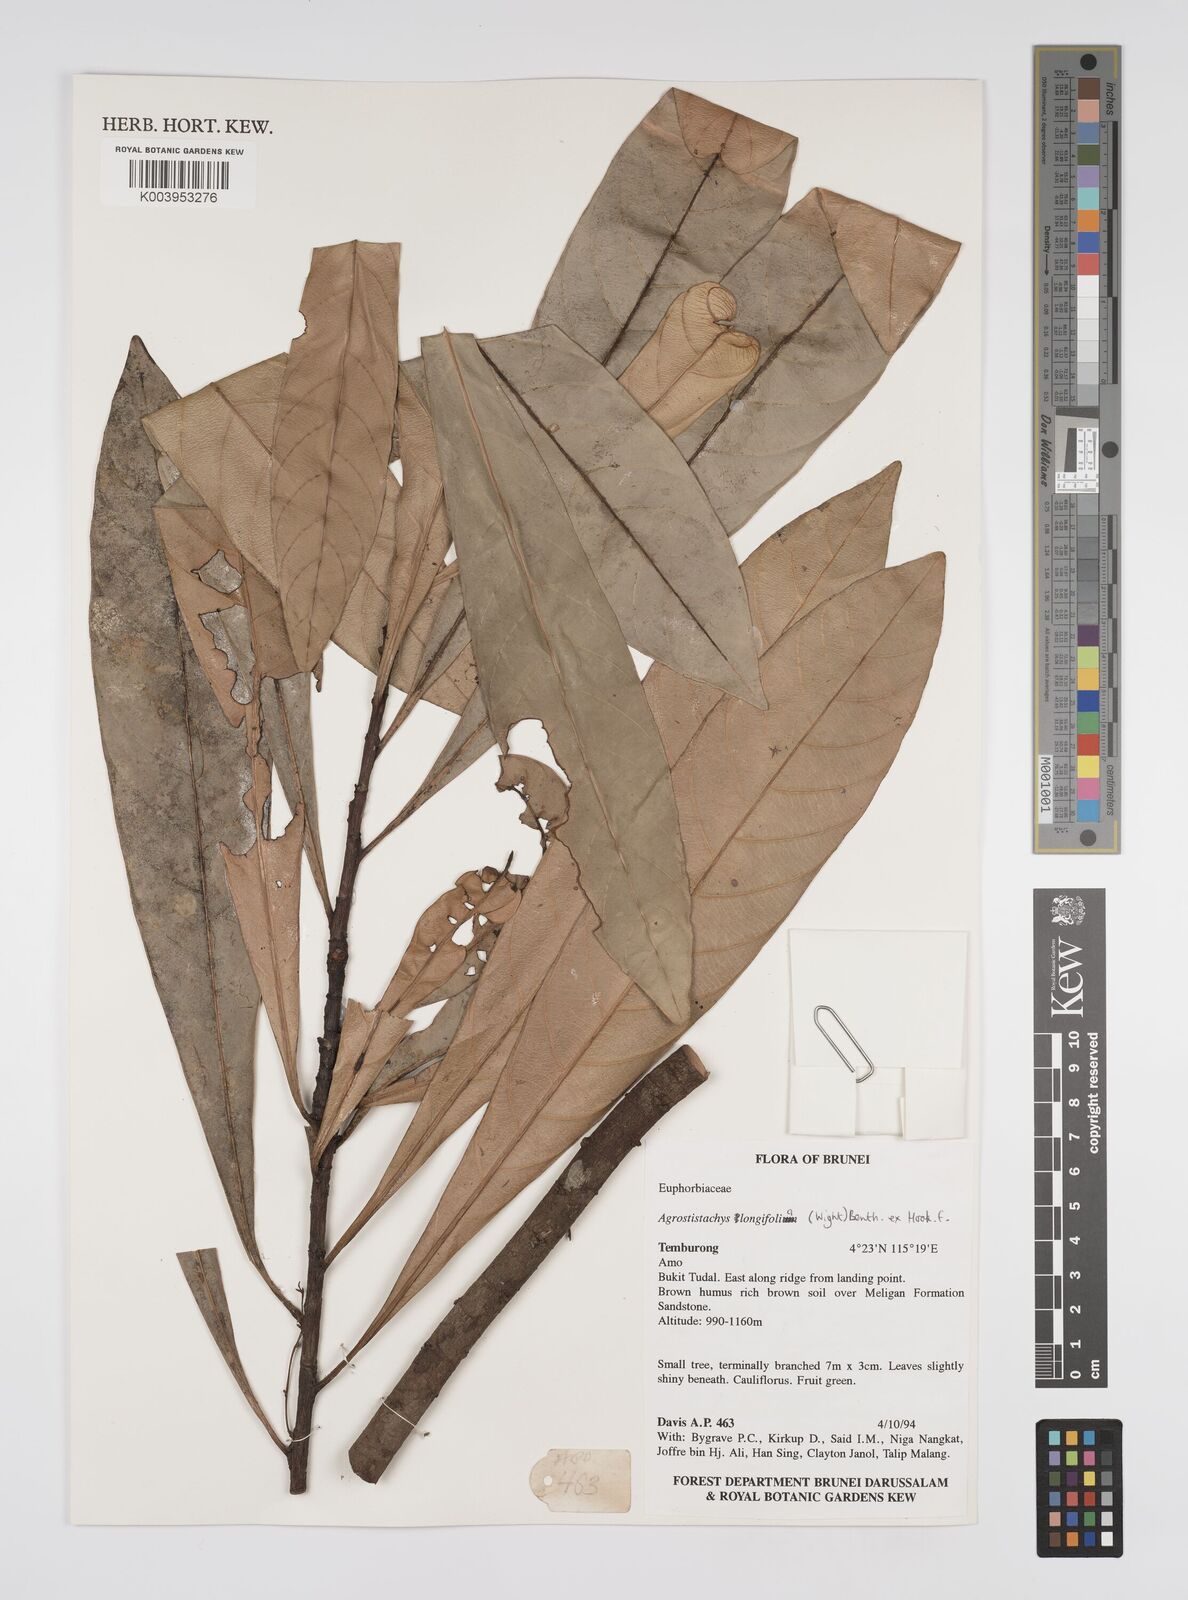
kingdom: Plantae
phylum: Tracheophyta
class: Magnoliopsida
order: Malpighiales
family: Euphorbiaceae
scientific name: Euphorbiaceae
